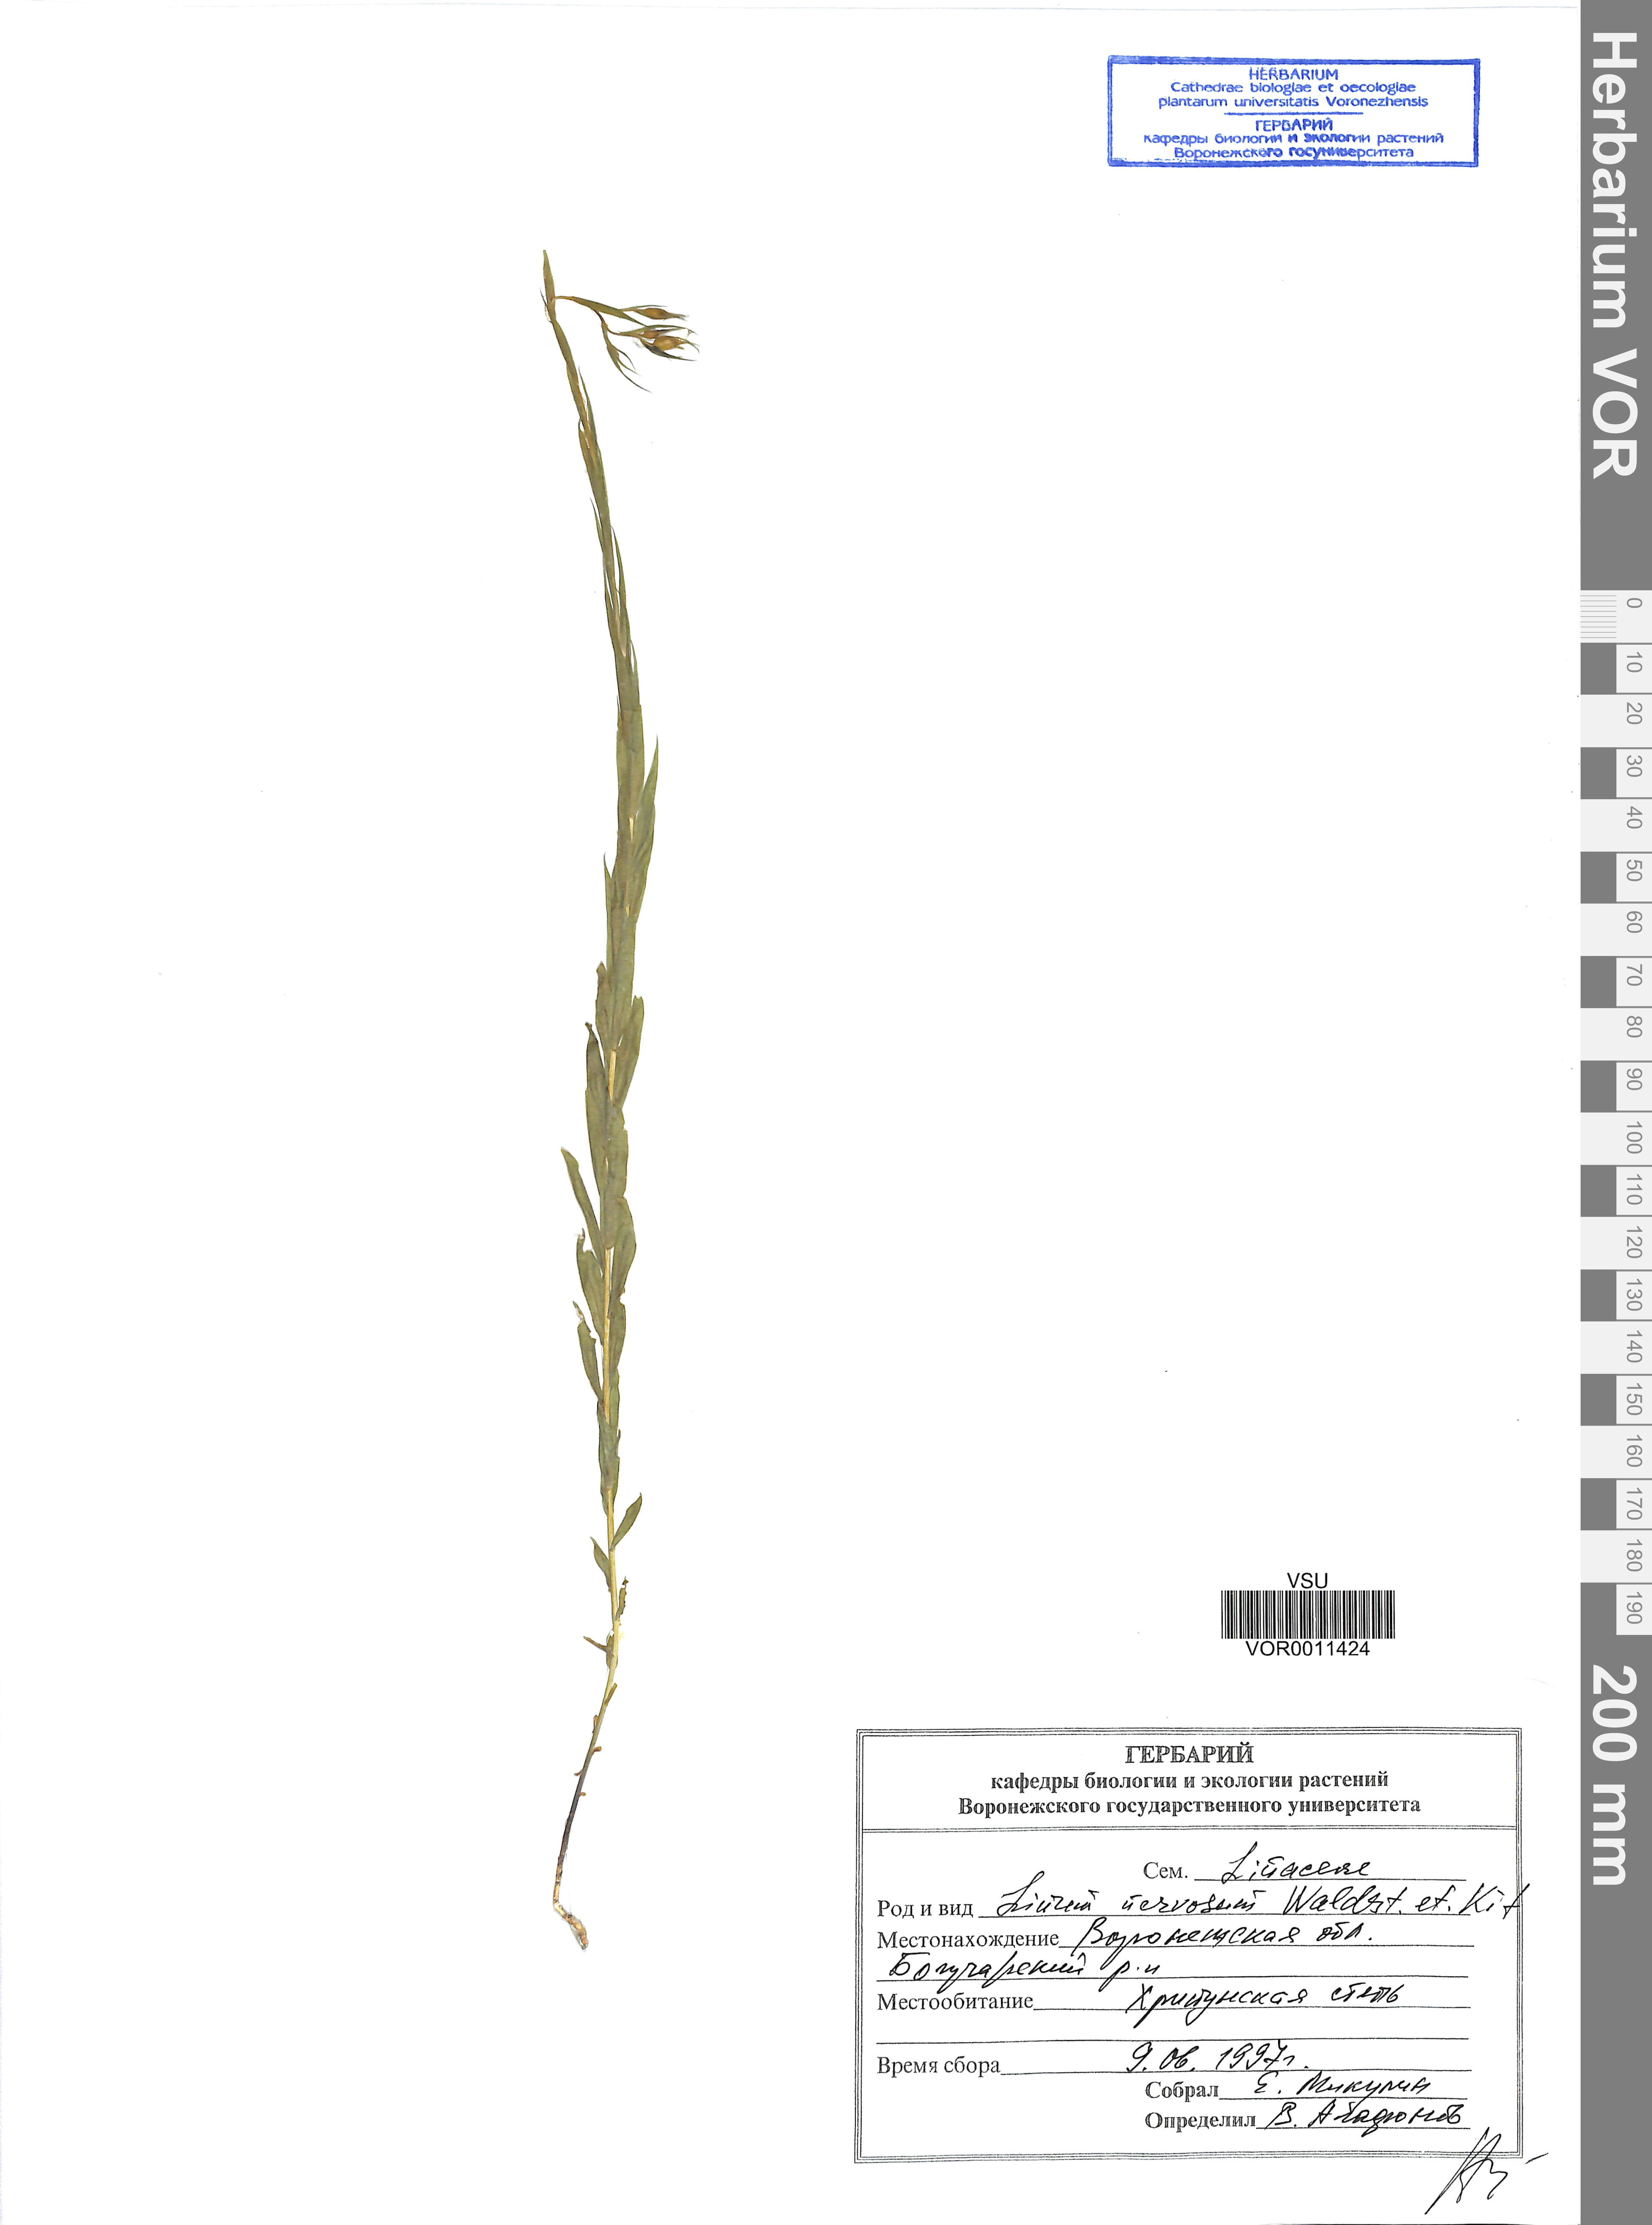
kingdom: Plantae
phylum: Tracheophyta
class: Magnoliopsida
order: Malpighiales
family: Linaceae
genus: Linum
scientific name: Linum nervosum
